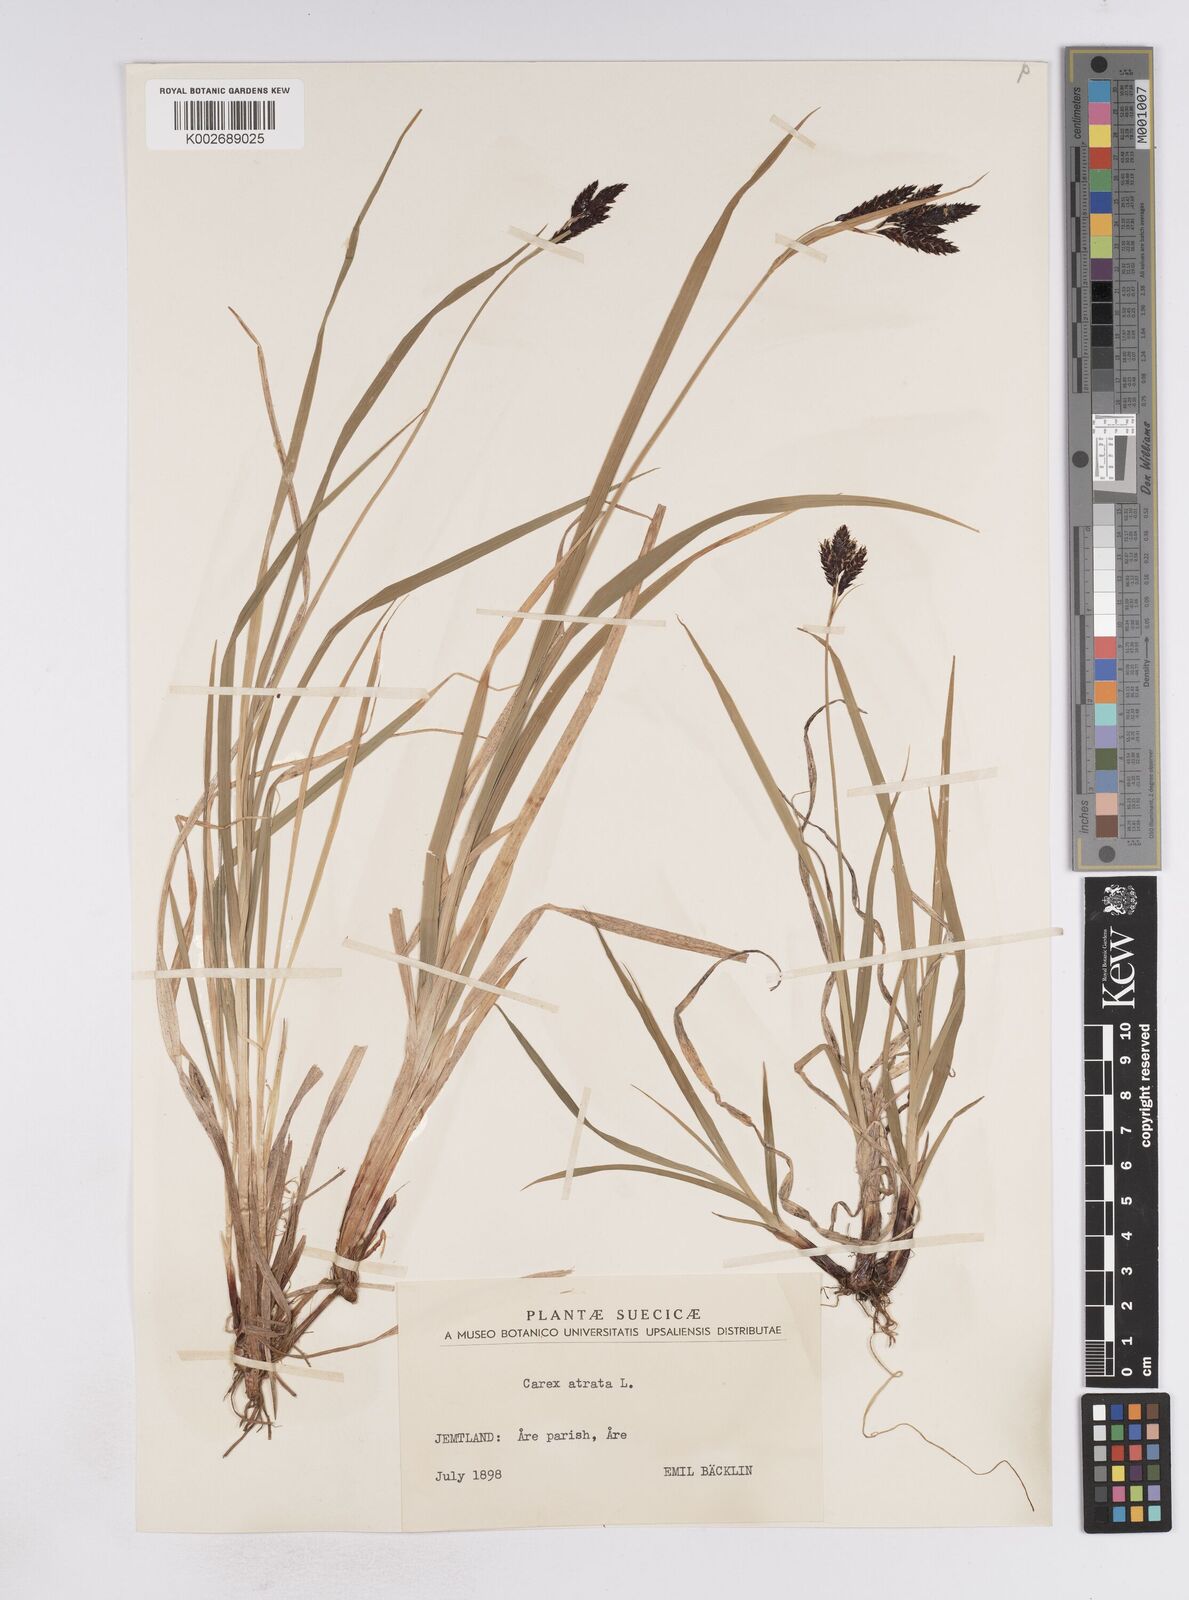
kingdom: Plantae
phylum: Tracheophyta
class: Liliopsida
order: Poales
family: Cyperaceae
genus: Carex
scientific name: Carex atrata
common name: Black alpine sedge
